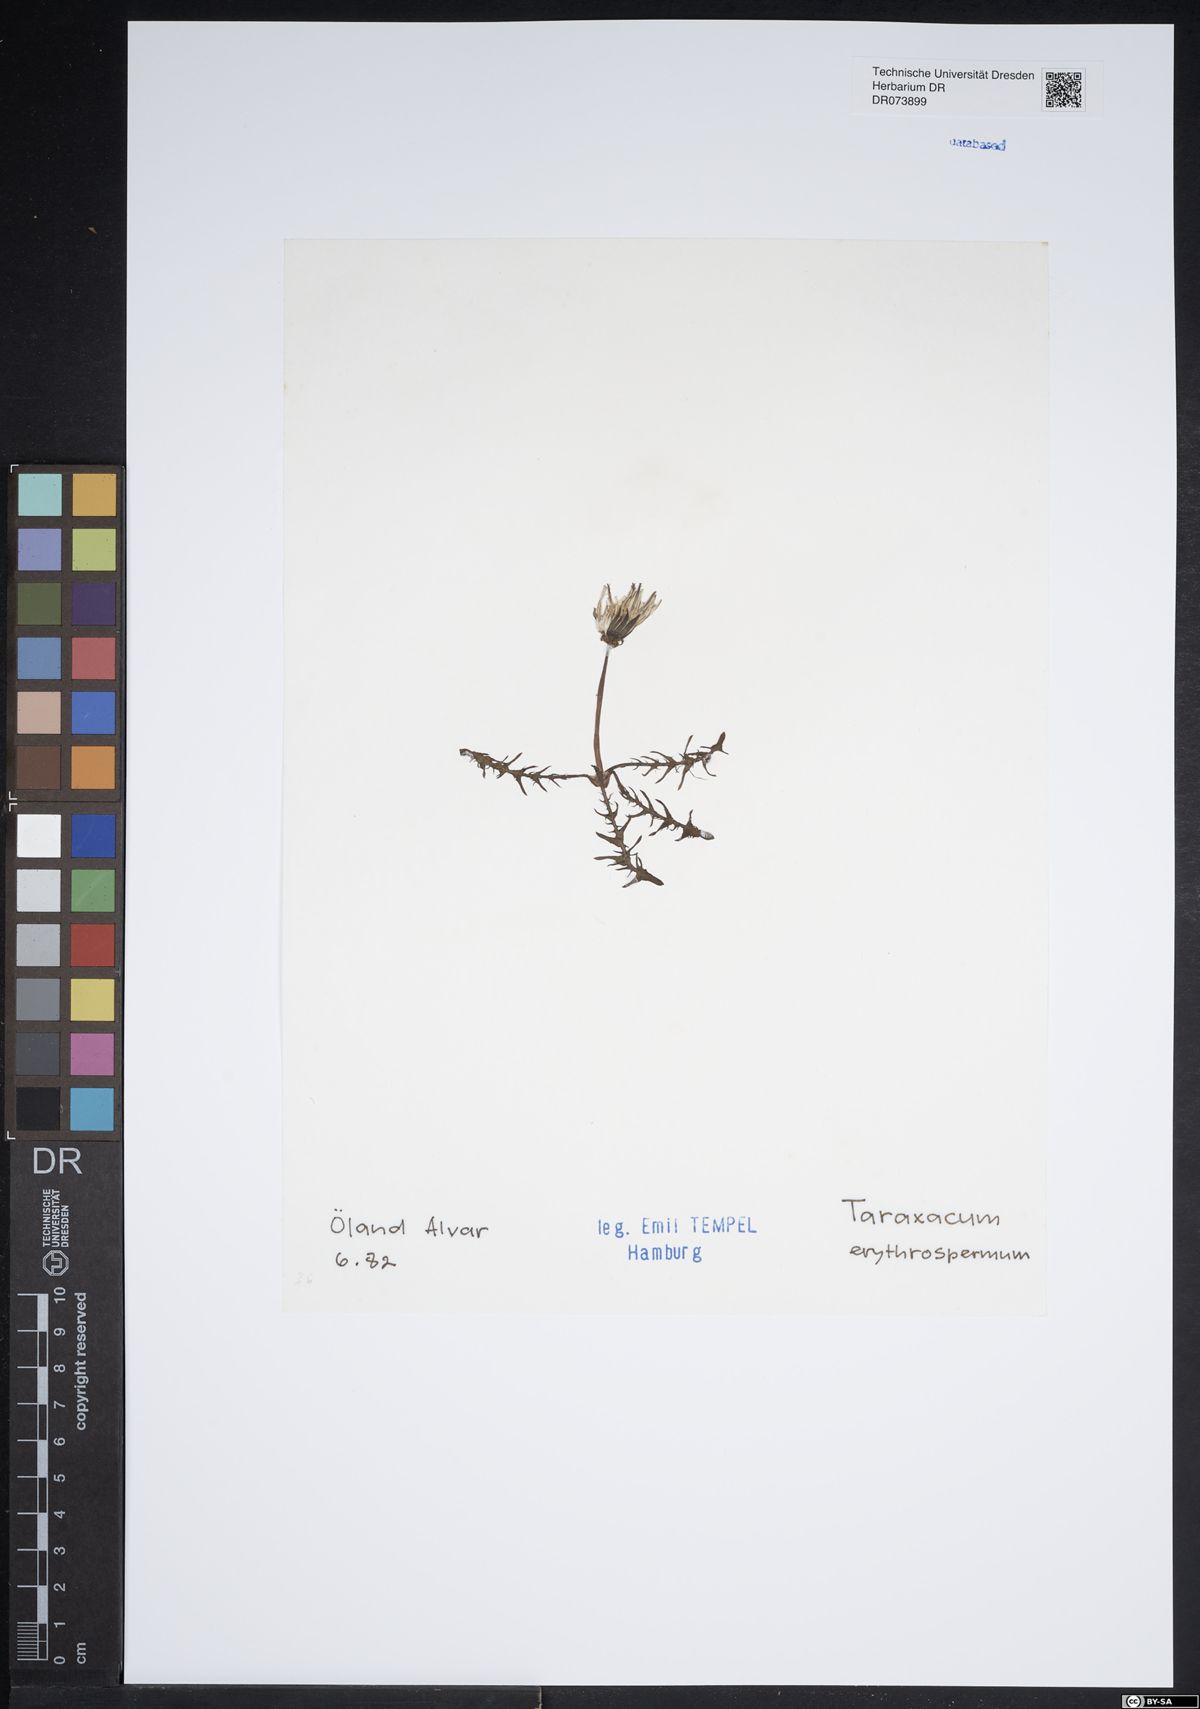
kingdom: Plantae
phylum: Tracheophyta
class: Magnoliopsida
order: Asterales
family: Asteraceae
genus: Taraxacum
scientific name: Taraxacum erythrospermum
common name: Rock dandelion
